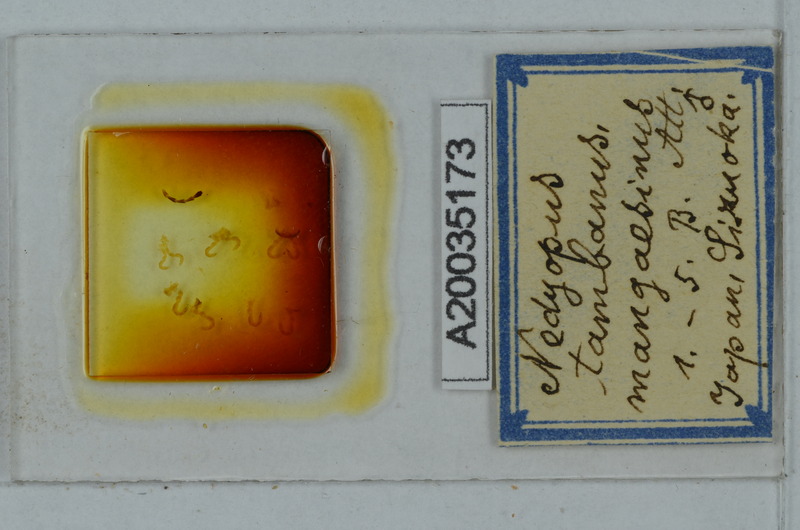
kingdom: Animalia
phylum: Arthropoda
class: Diplopoda
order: Polydesmida
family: Paradoxosomatidae
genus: Nedyopus
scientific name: Nedyopus tambanus
